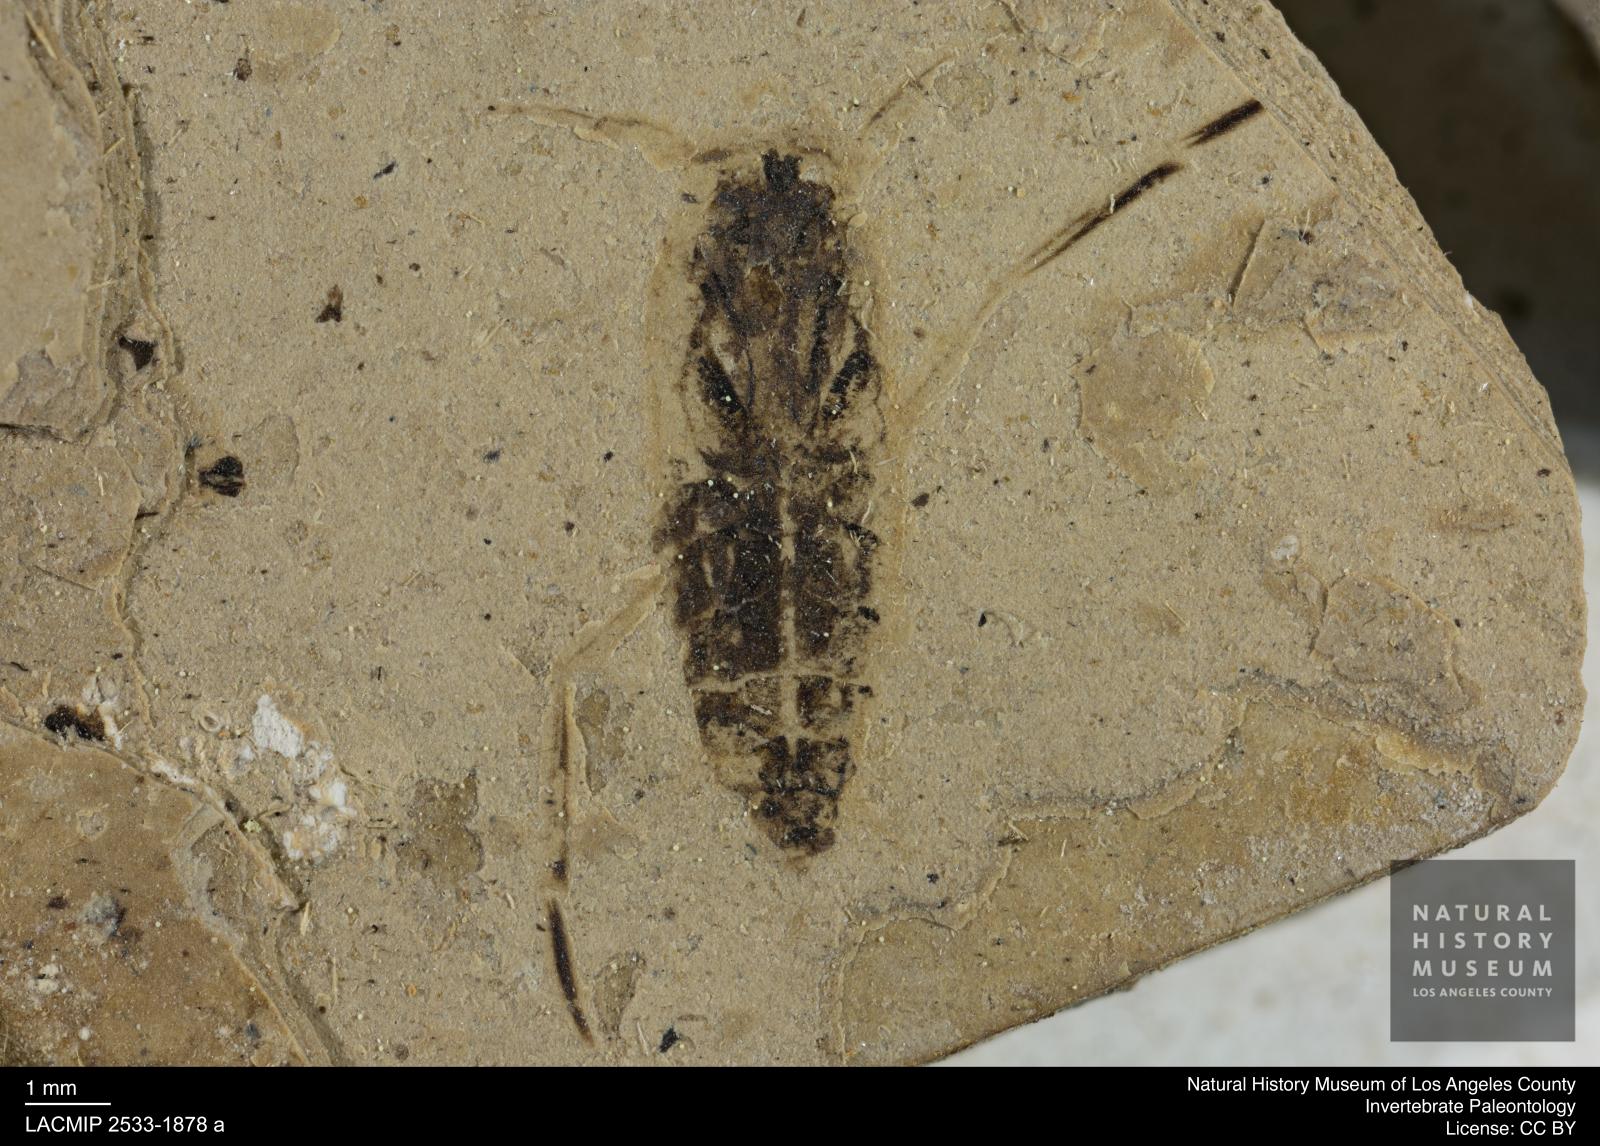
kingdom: Animalia
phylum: Arthropoda
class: Insecta
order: Hemiptera
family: Notonectidae
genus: Anisops
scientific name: Anisops Notonecta deichmuelleri
